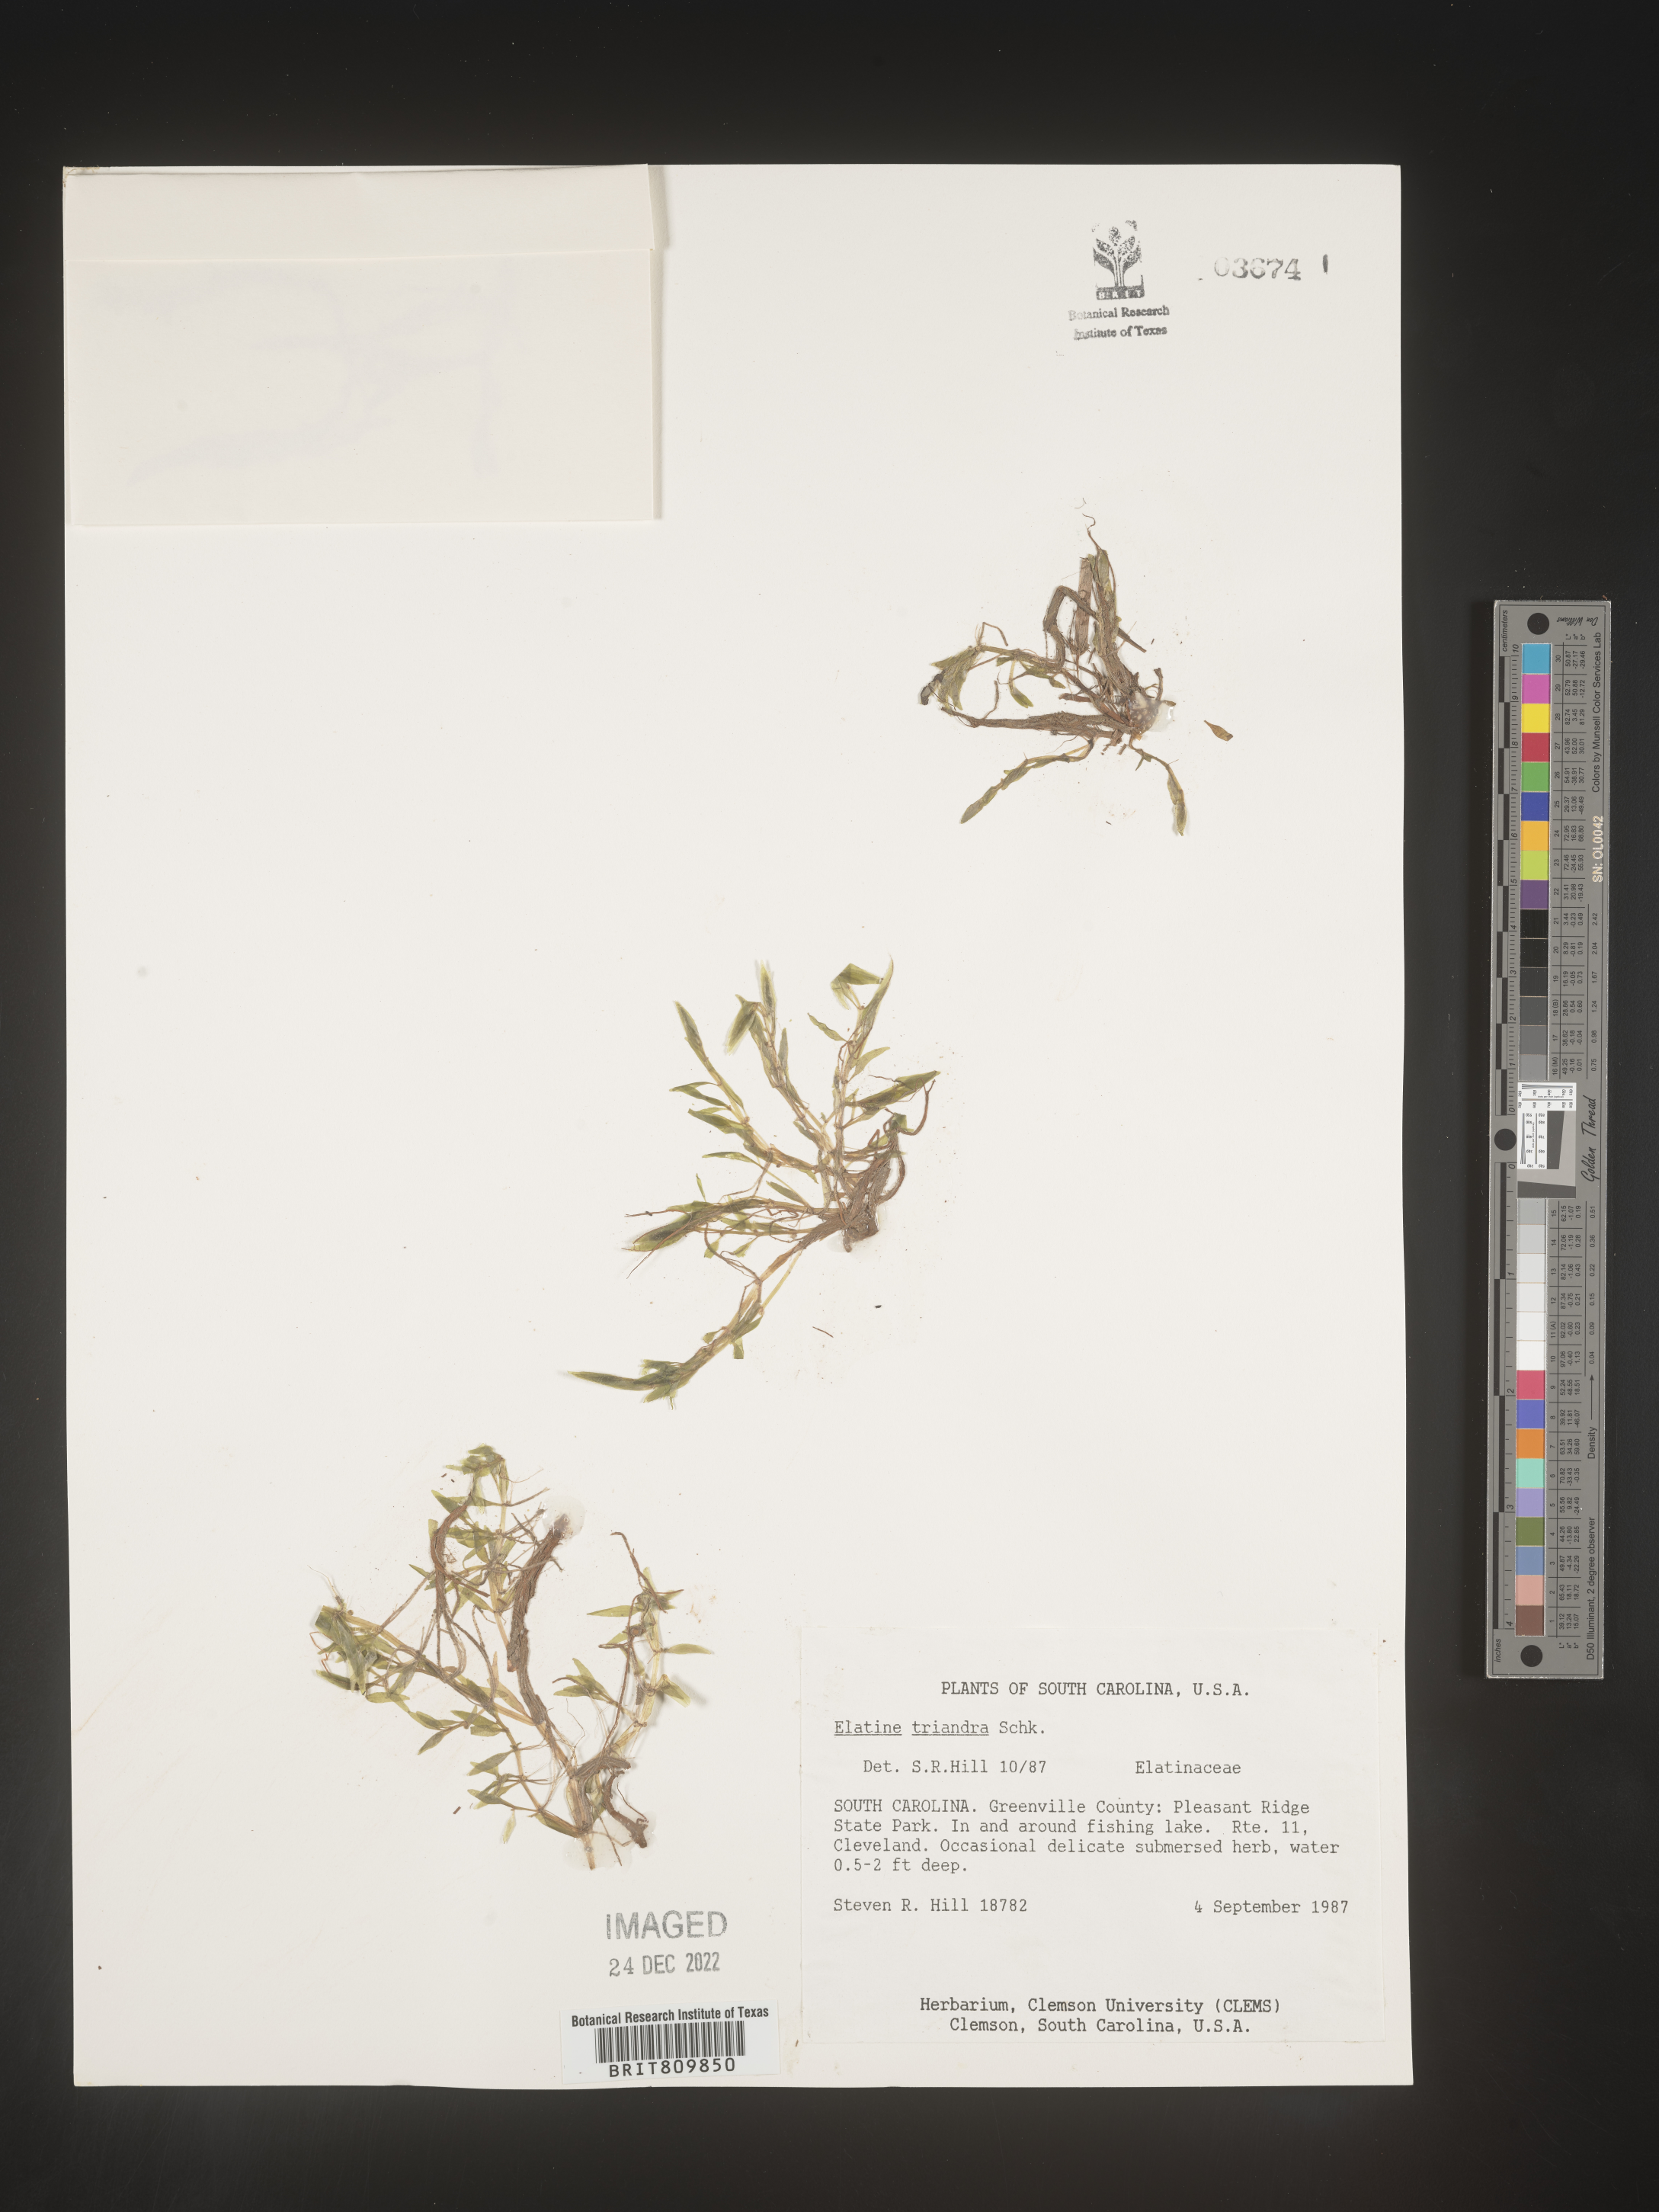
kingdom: Plantae
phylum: Tracheophyta
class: Magnoliopsida
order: Malpighiales
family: Elatinaceae
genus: Elatine
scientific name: Elatine
